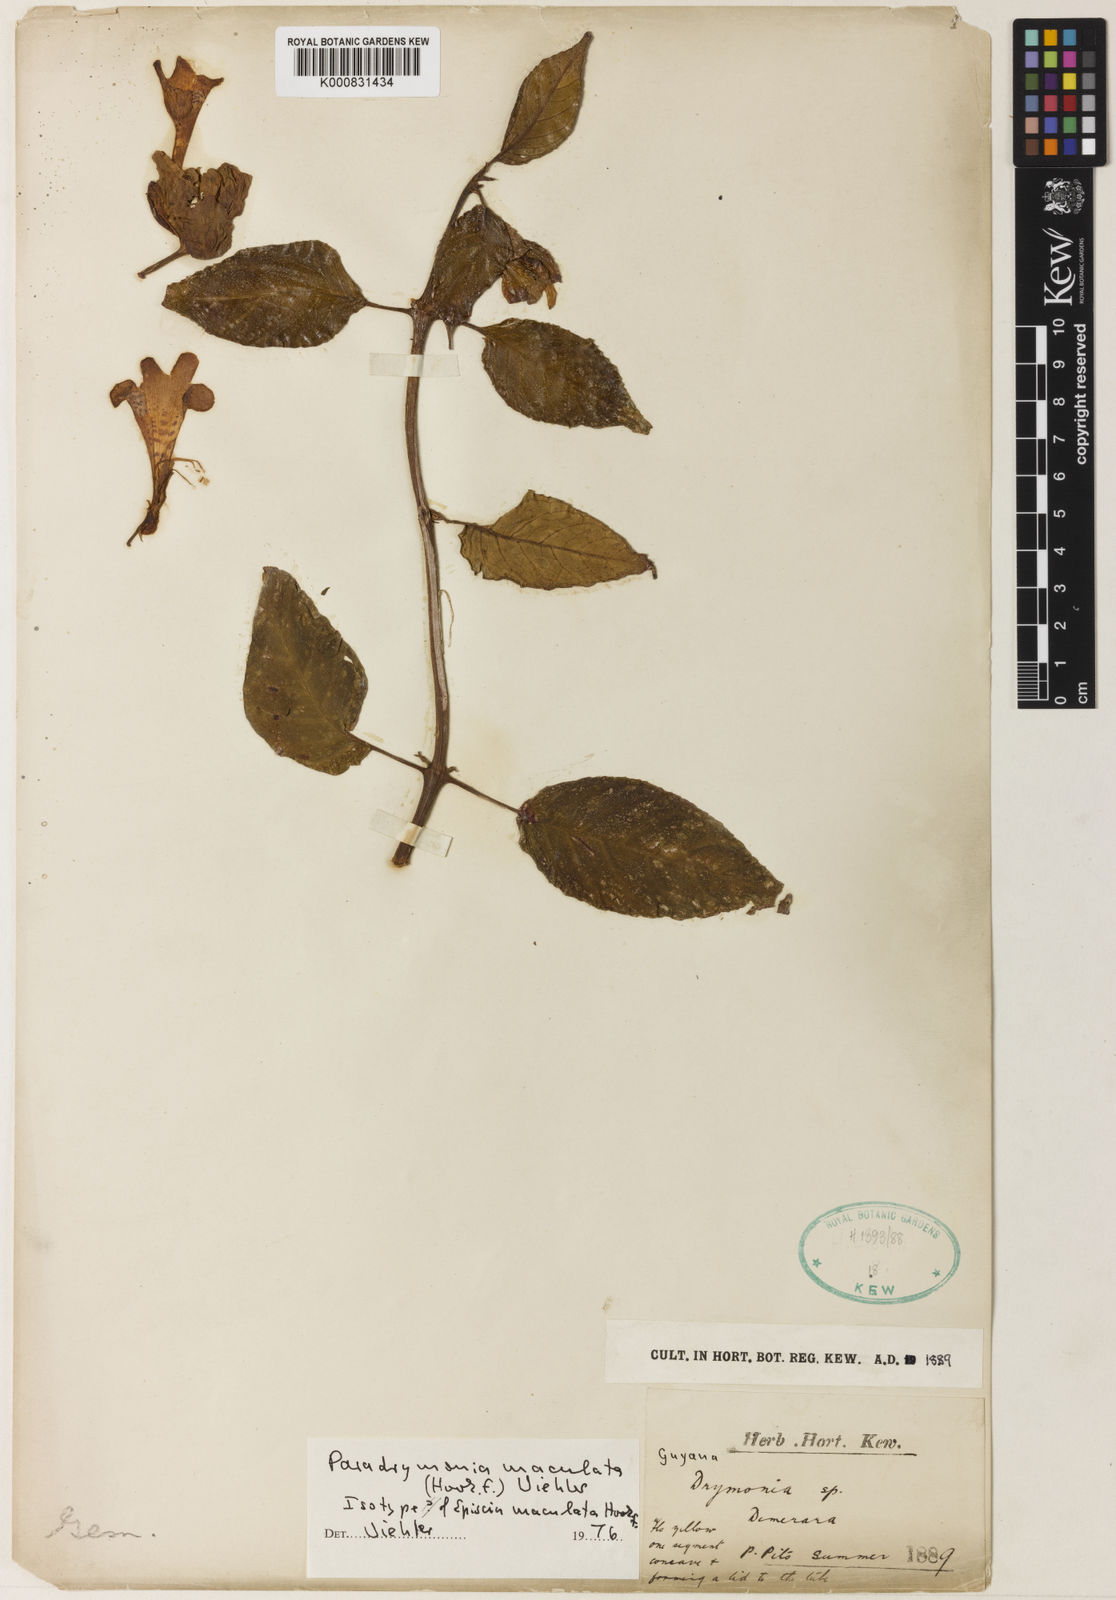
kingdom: Plantae
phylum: Tracheophyta
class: Magnoliopsida
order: Lamiales
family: Gesneriaceae
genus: Pagothyra
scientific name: Pagothyra maculata
